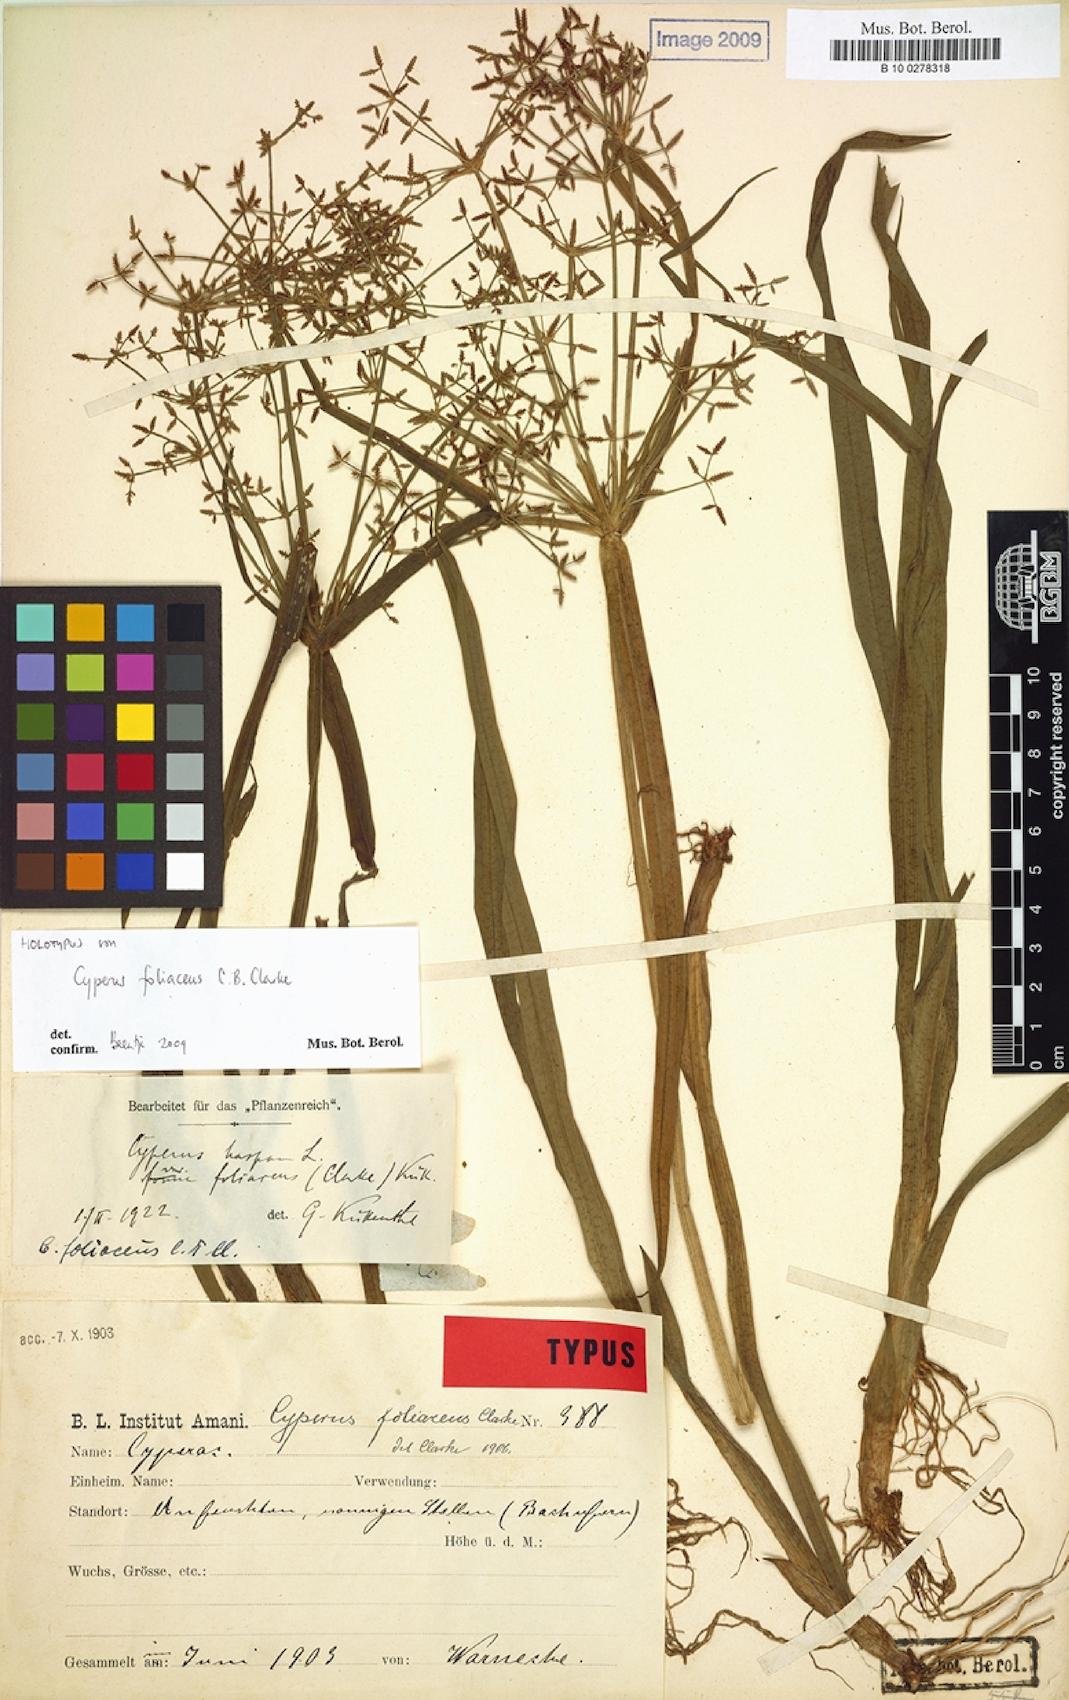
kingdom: Plantae
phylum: Tracheophyta
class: Liliopsida
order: Poales
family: Cyperaceae
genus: Cyperus
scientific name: Cyperus foliaceus
